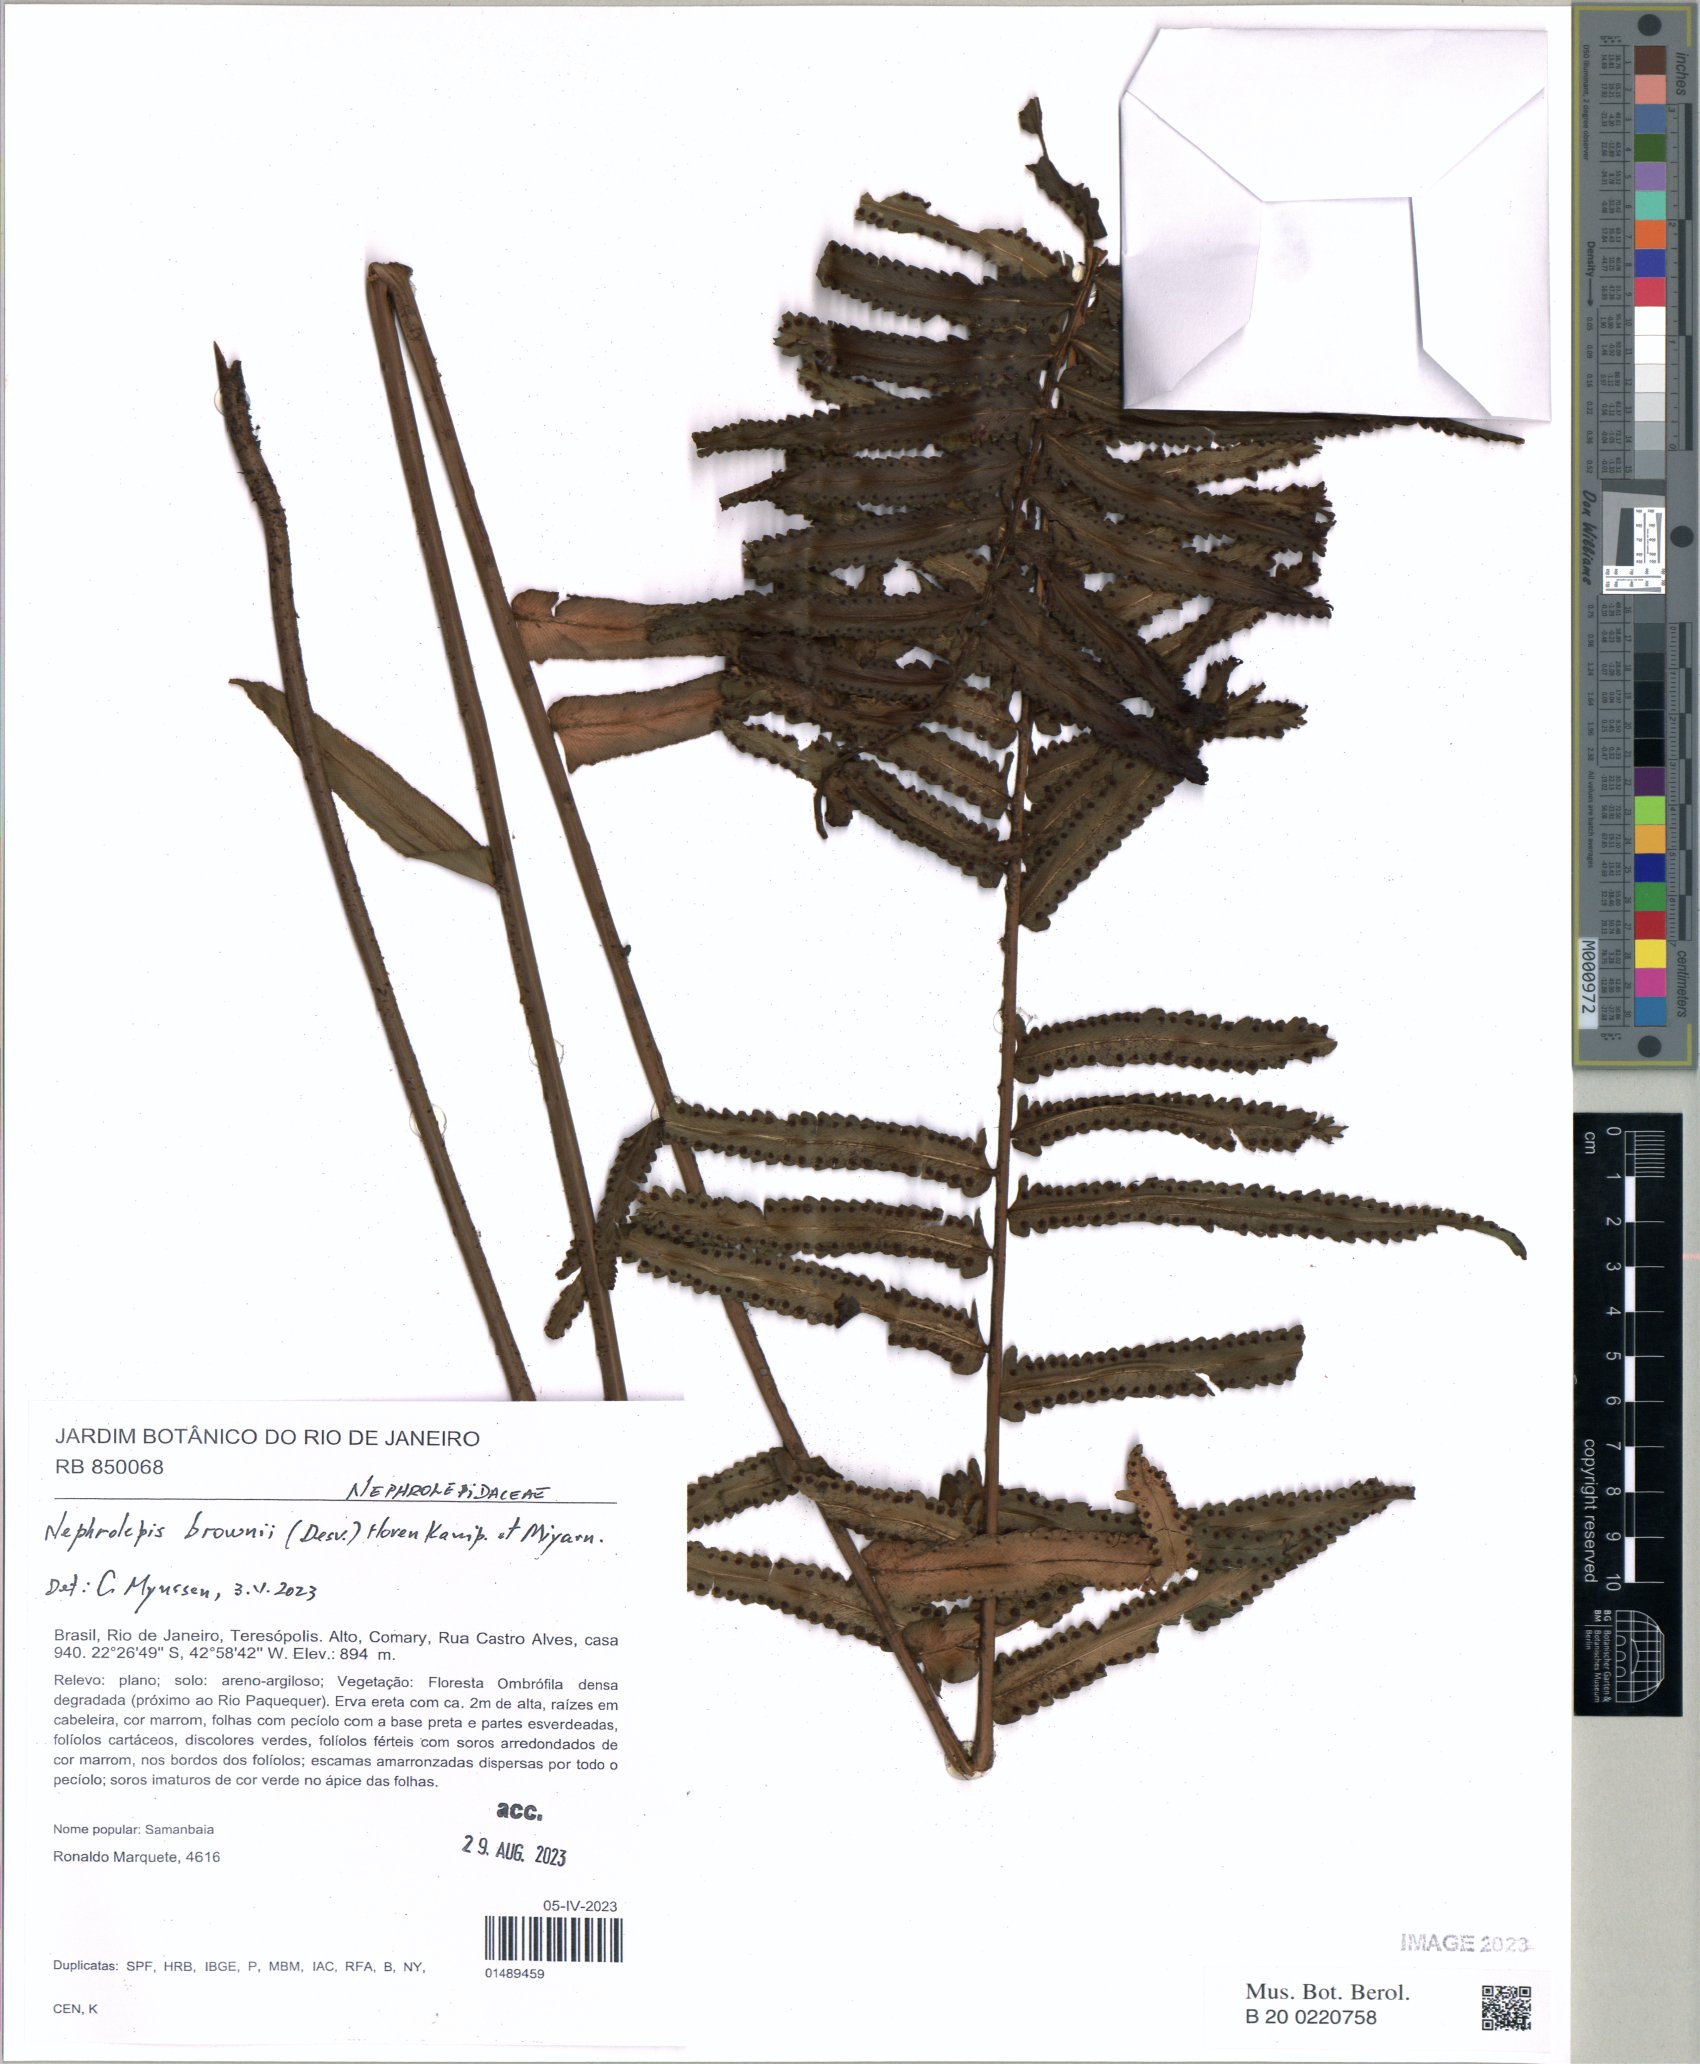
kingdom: Plantae
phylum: Tracheophyta
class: Polypodiopsida
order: Polypodiales
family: Nephrolepidaceae
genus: Nephrolepis
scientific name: Nephrolepis brownii
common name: Asian swordfern
